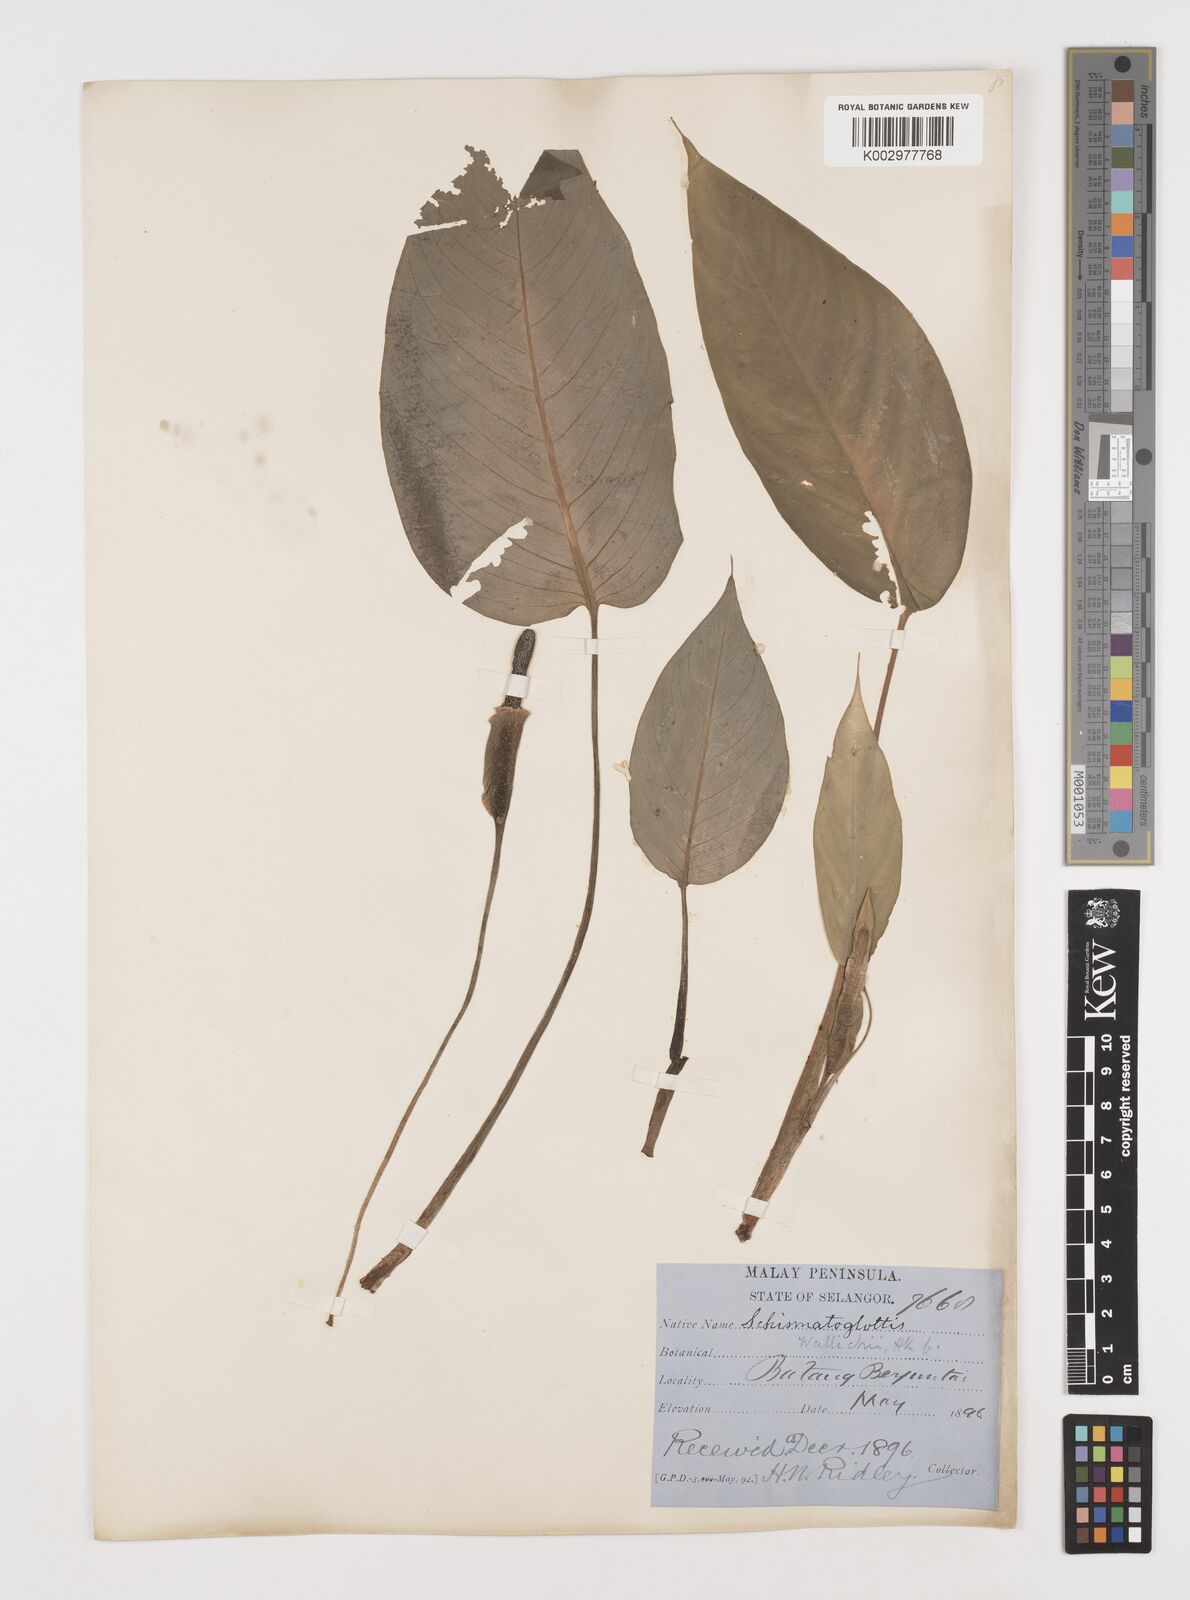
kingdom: Plantae
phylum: Tracheophyta
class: Liliopsida
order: Alismatales
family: Araceae
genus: Schismatoglottis
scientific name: Schismatoglottis wallichii
